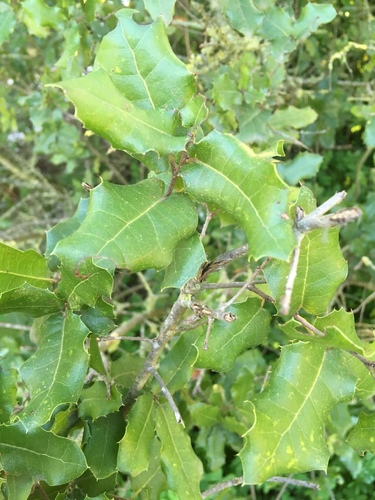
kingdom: Plantae
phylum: Tracheophyta
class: Magnoliopsida
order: Fagales
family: Fagaceae
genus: Quercus
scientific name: Quercus coccifera
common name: Kermes oak
